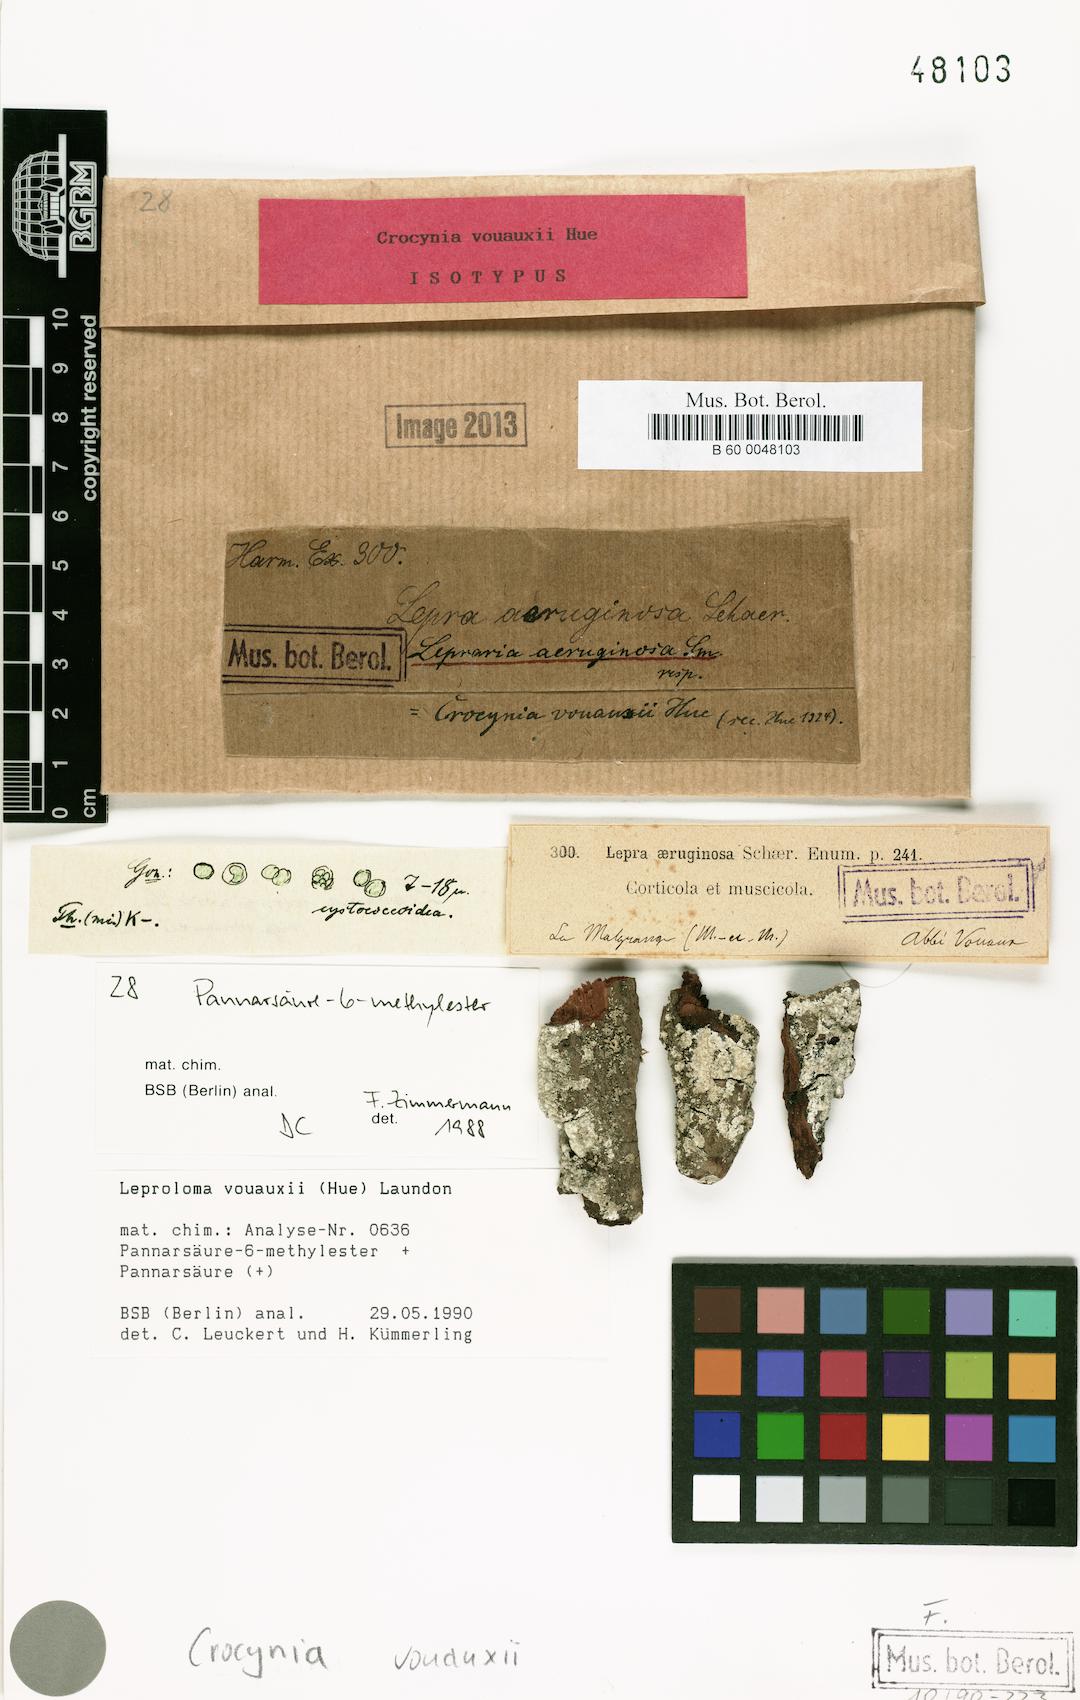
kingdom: Fungi
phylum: Ascomycota
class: Lecanoromycetes
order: Lecanorales
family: Ramalinaceae
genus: Crocynia
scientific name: Crocynia
